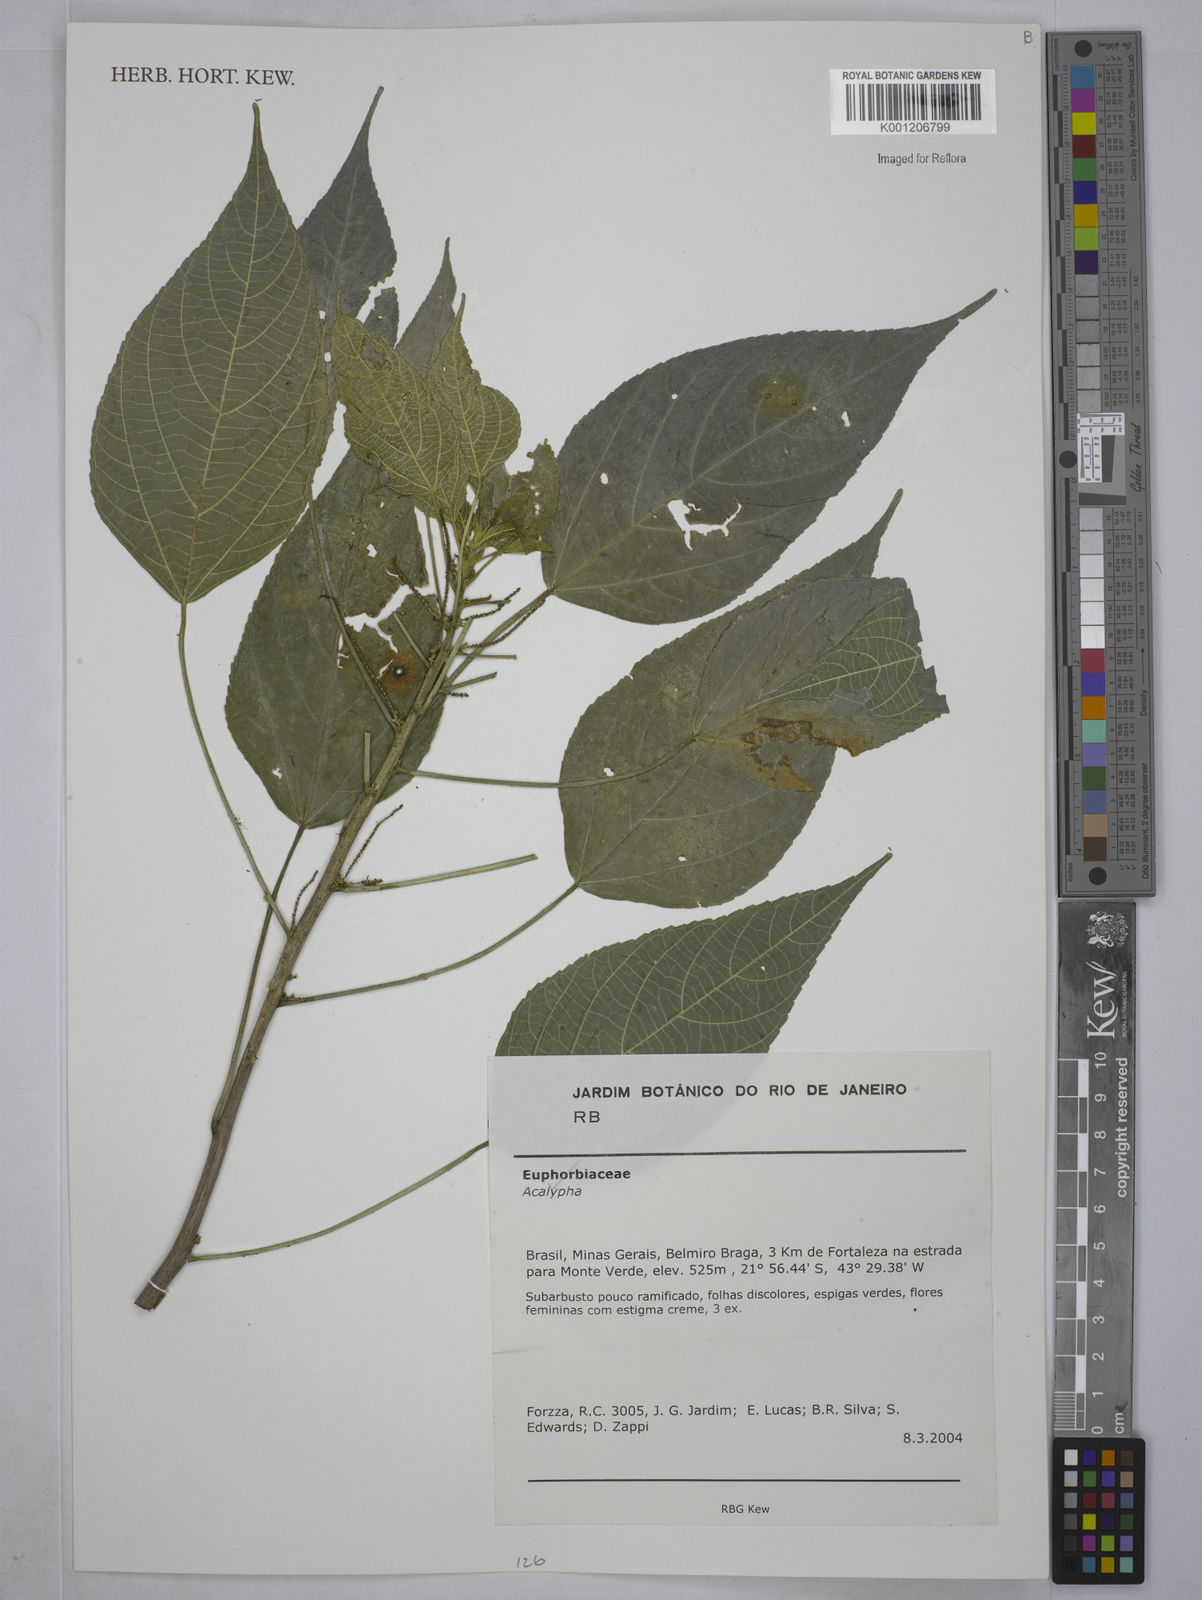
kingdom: Plantae
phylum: Tracheophyta
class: Magnoliopsida
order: Malpighiales
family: Euphorbiaceae
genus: Acalypha
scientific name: Acalypha
